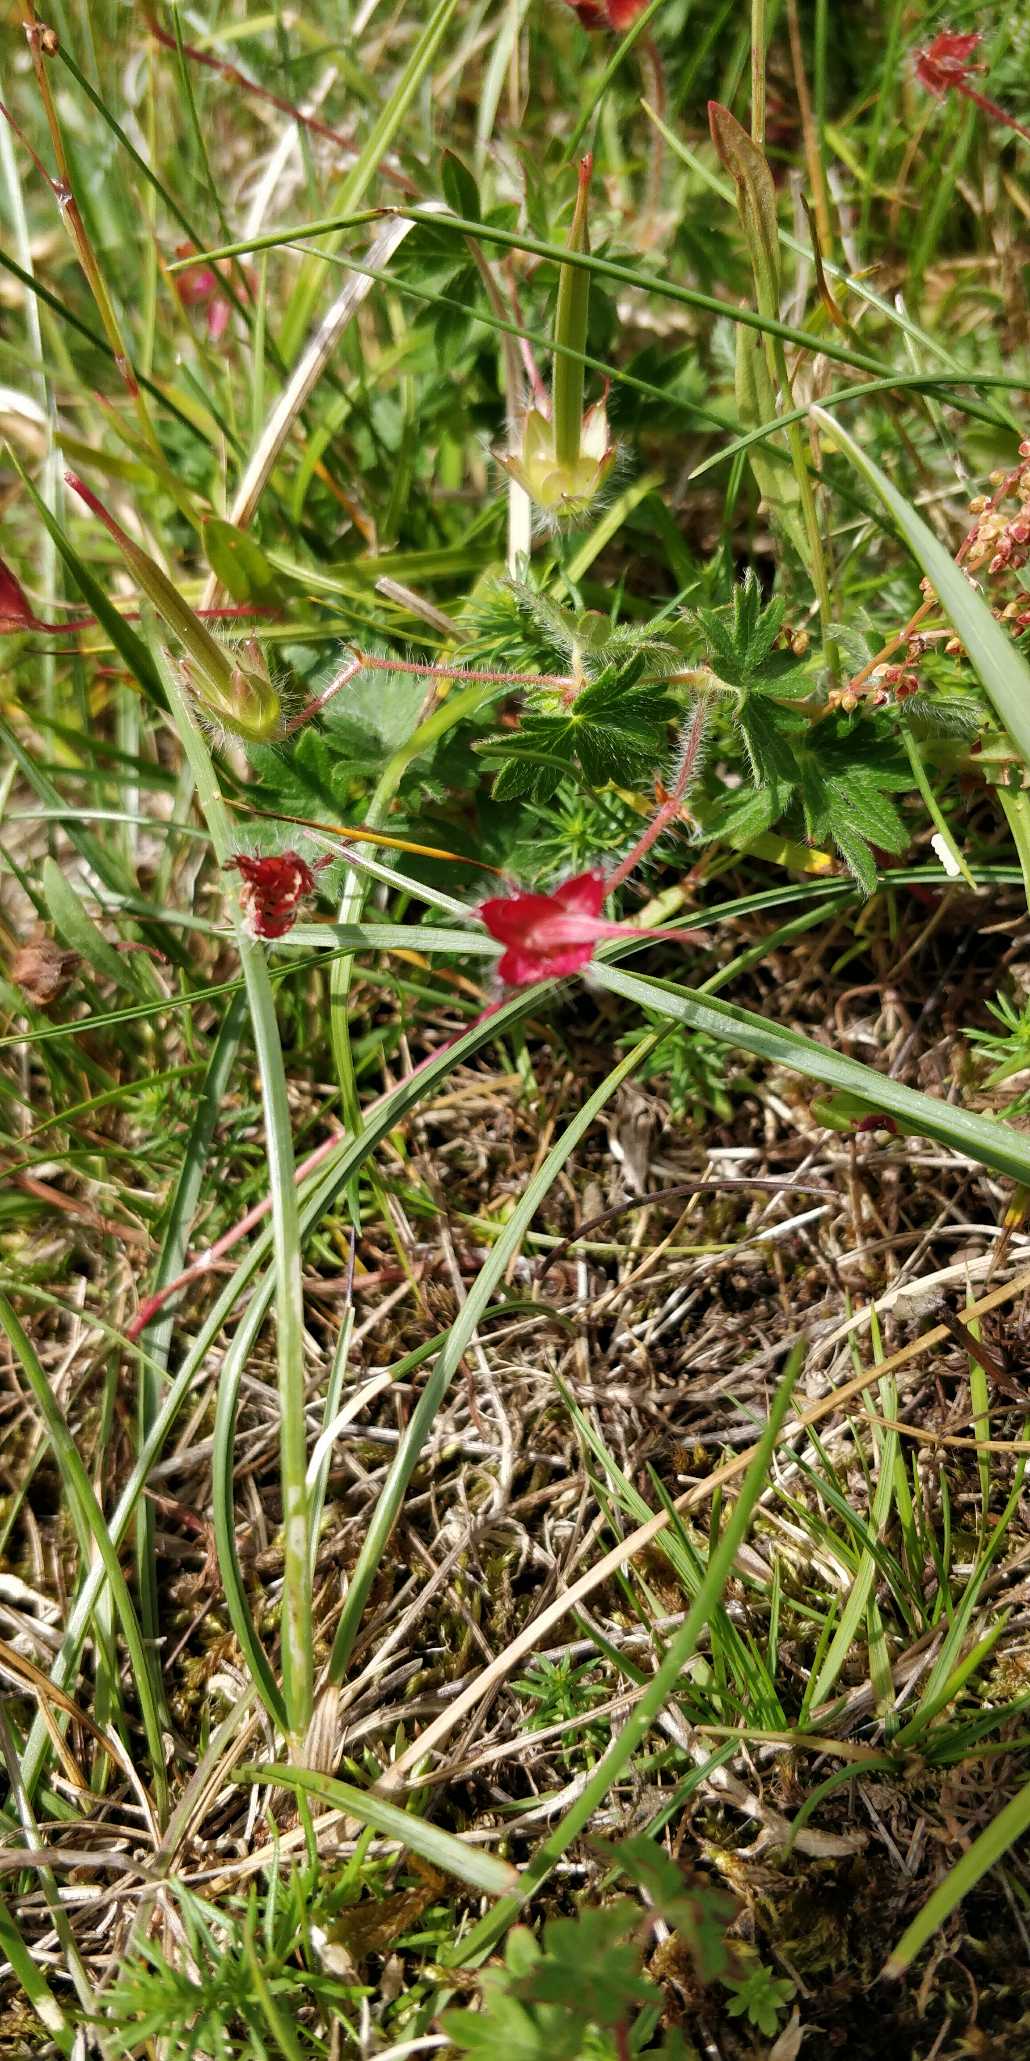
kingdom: Plantae
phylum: Tracheophyta
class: Magnoliopsida
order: Geraniales
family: Geraniaceae
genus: Geranium
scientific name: Geranium sanguineum
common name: Blodrød storkenæb
